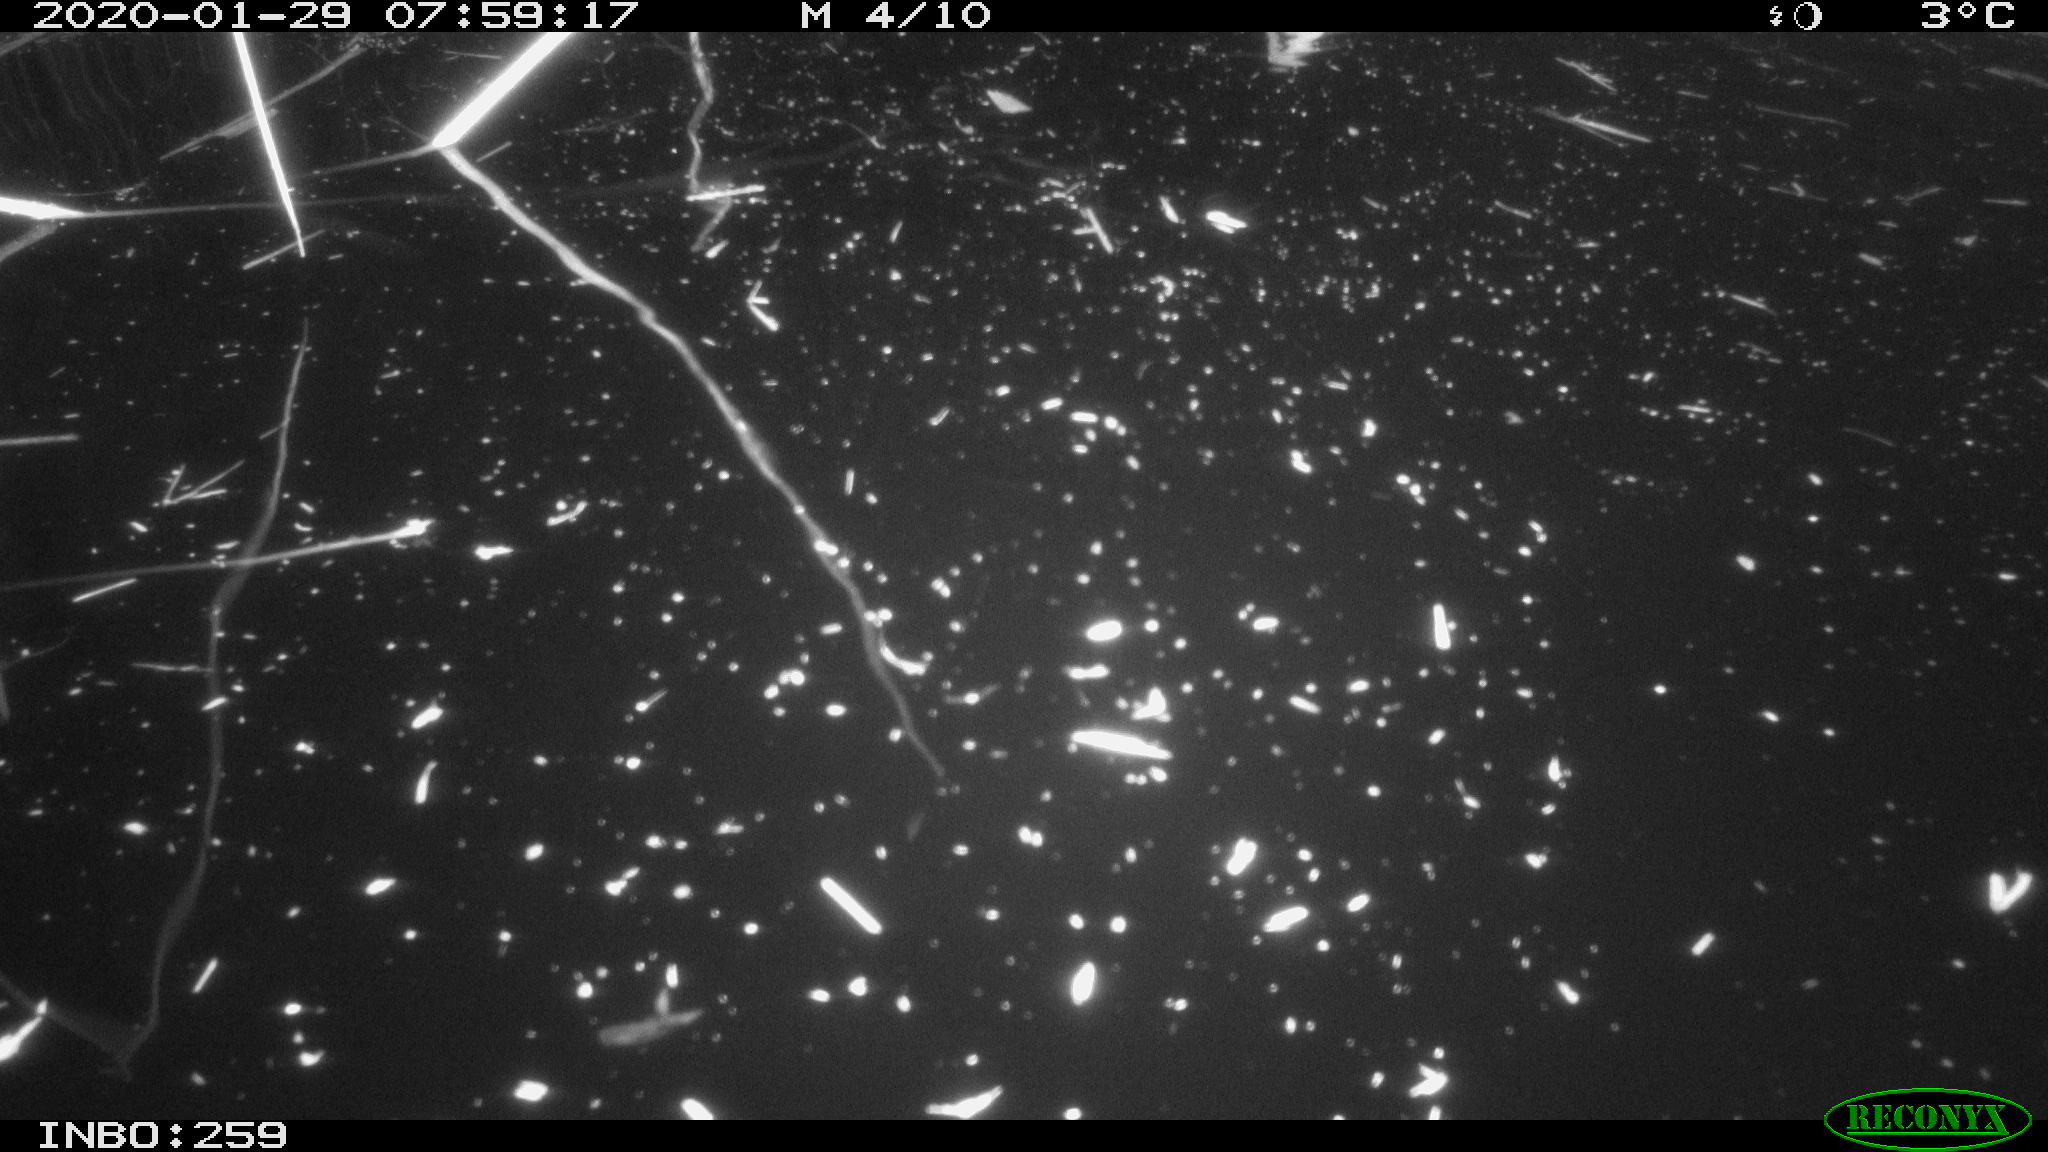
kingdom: Animalia
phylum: Chordata
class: Aves
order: Gruiformes
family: Rallidae
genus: Gallinula
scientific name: Gallinula chloropus
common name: Common moorhen
